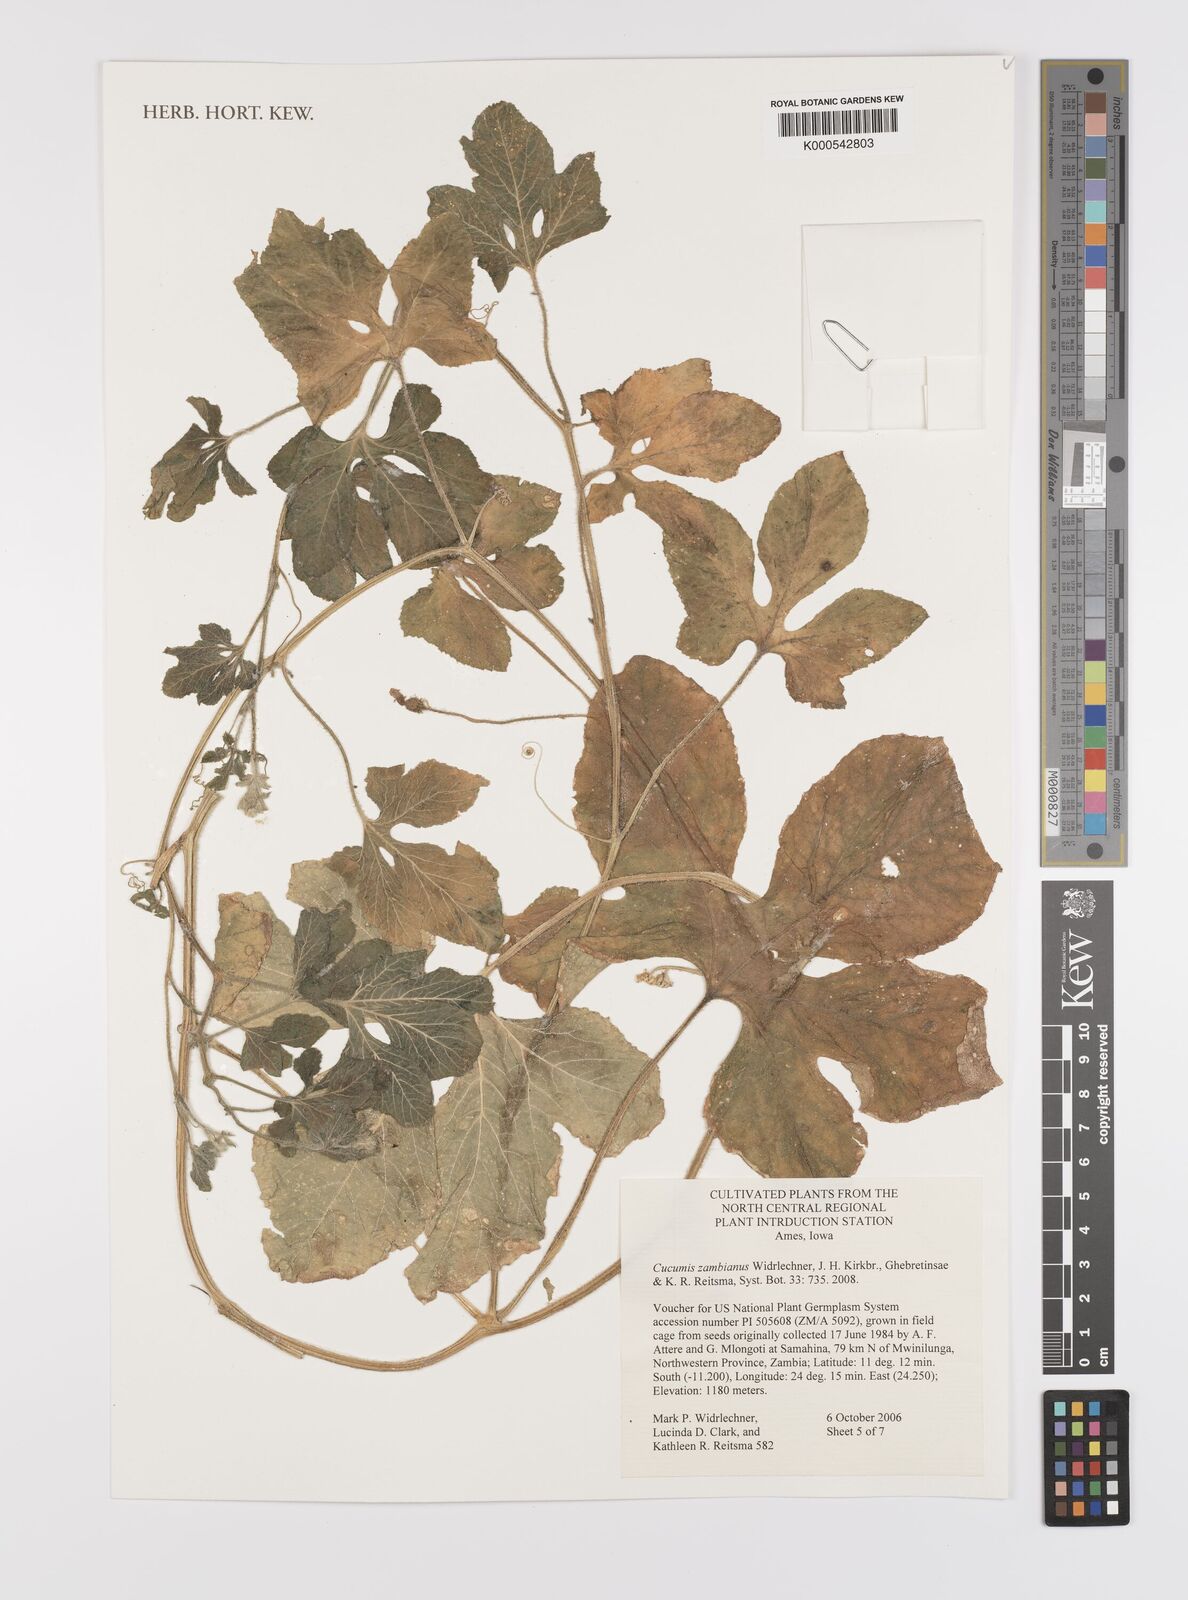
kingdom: Plantae
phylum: Tracheophyta
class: Magnoliopsida
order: Cucurbitales
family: Cucurbitaceae
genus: Cucumis
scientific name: Cucumis zambianus
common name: Katanda
